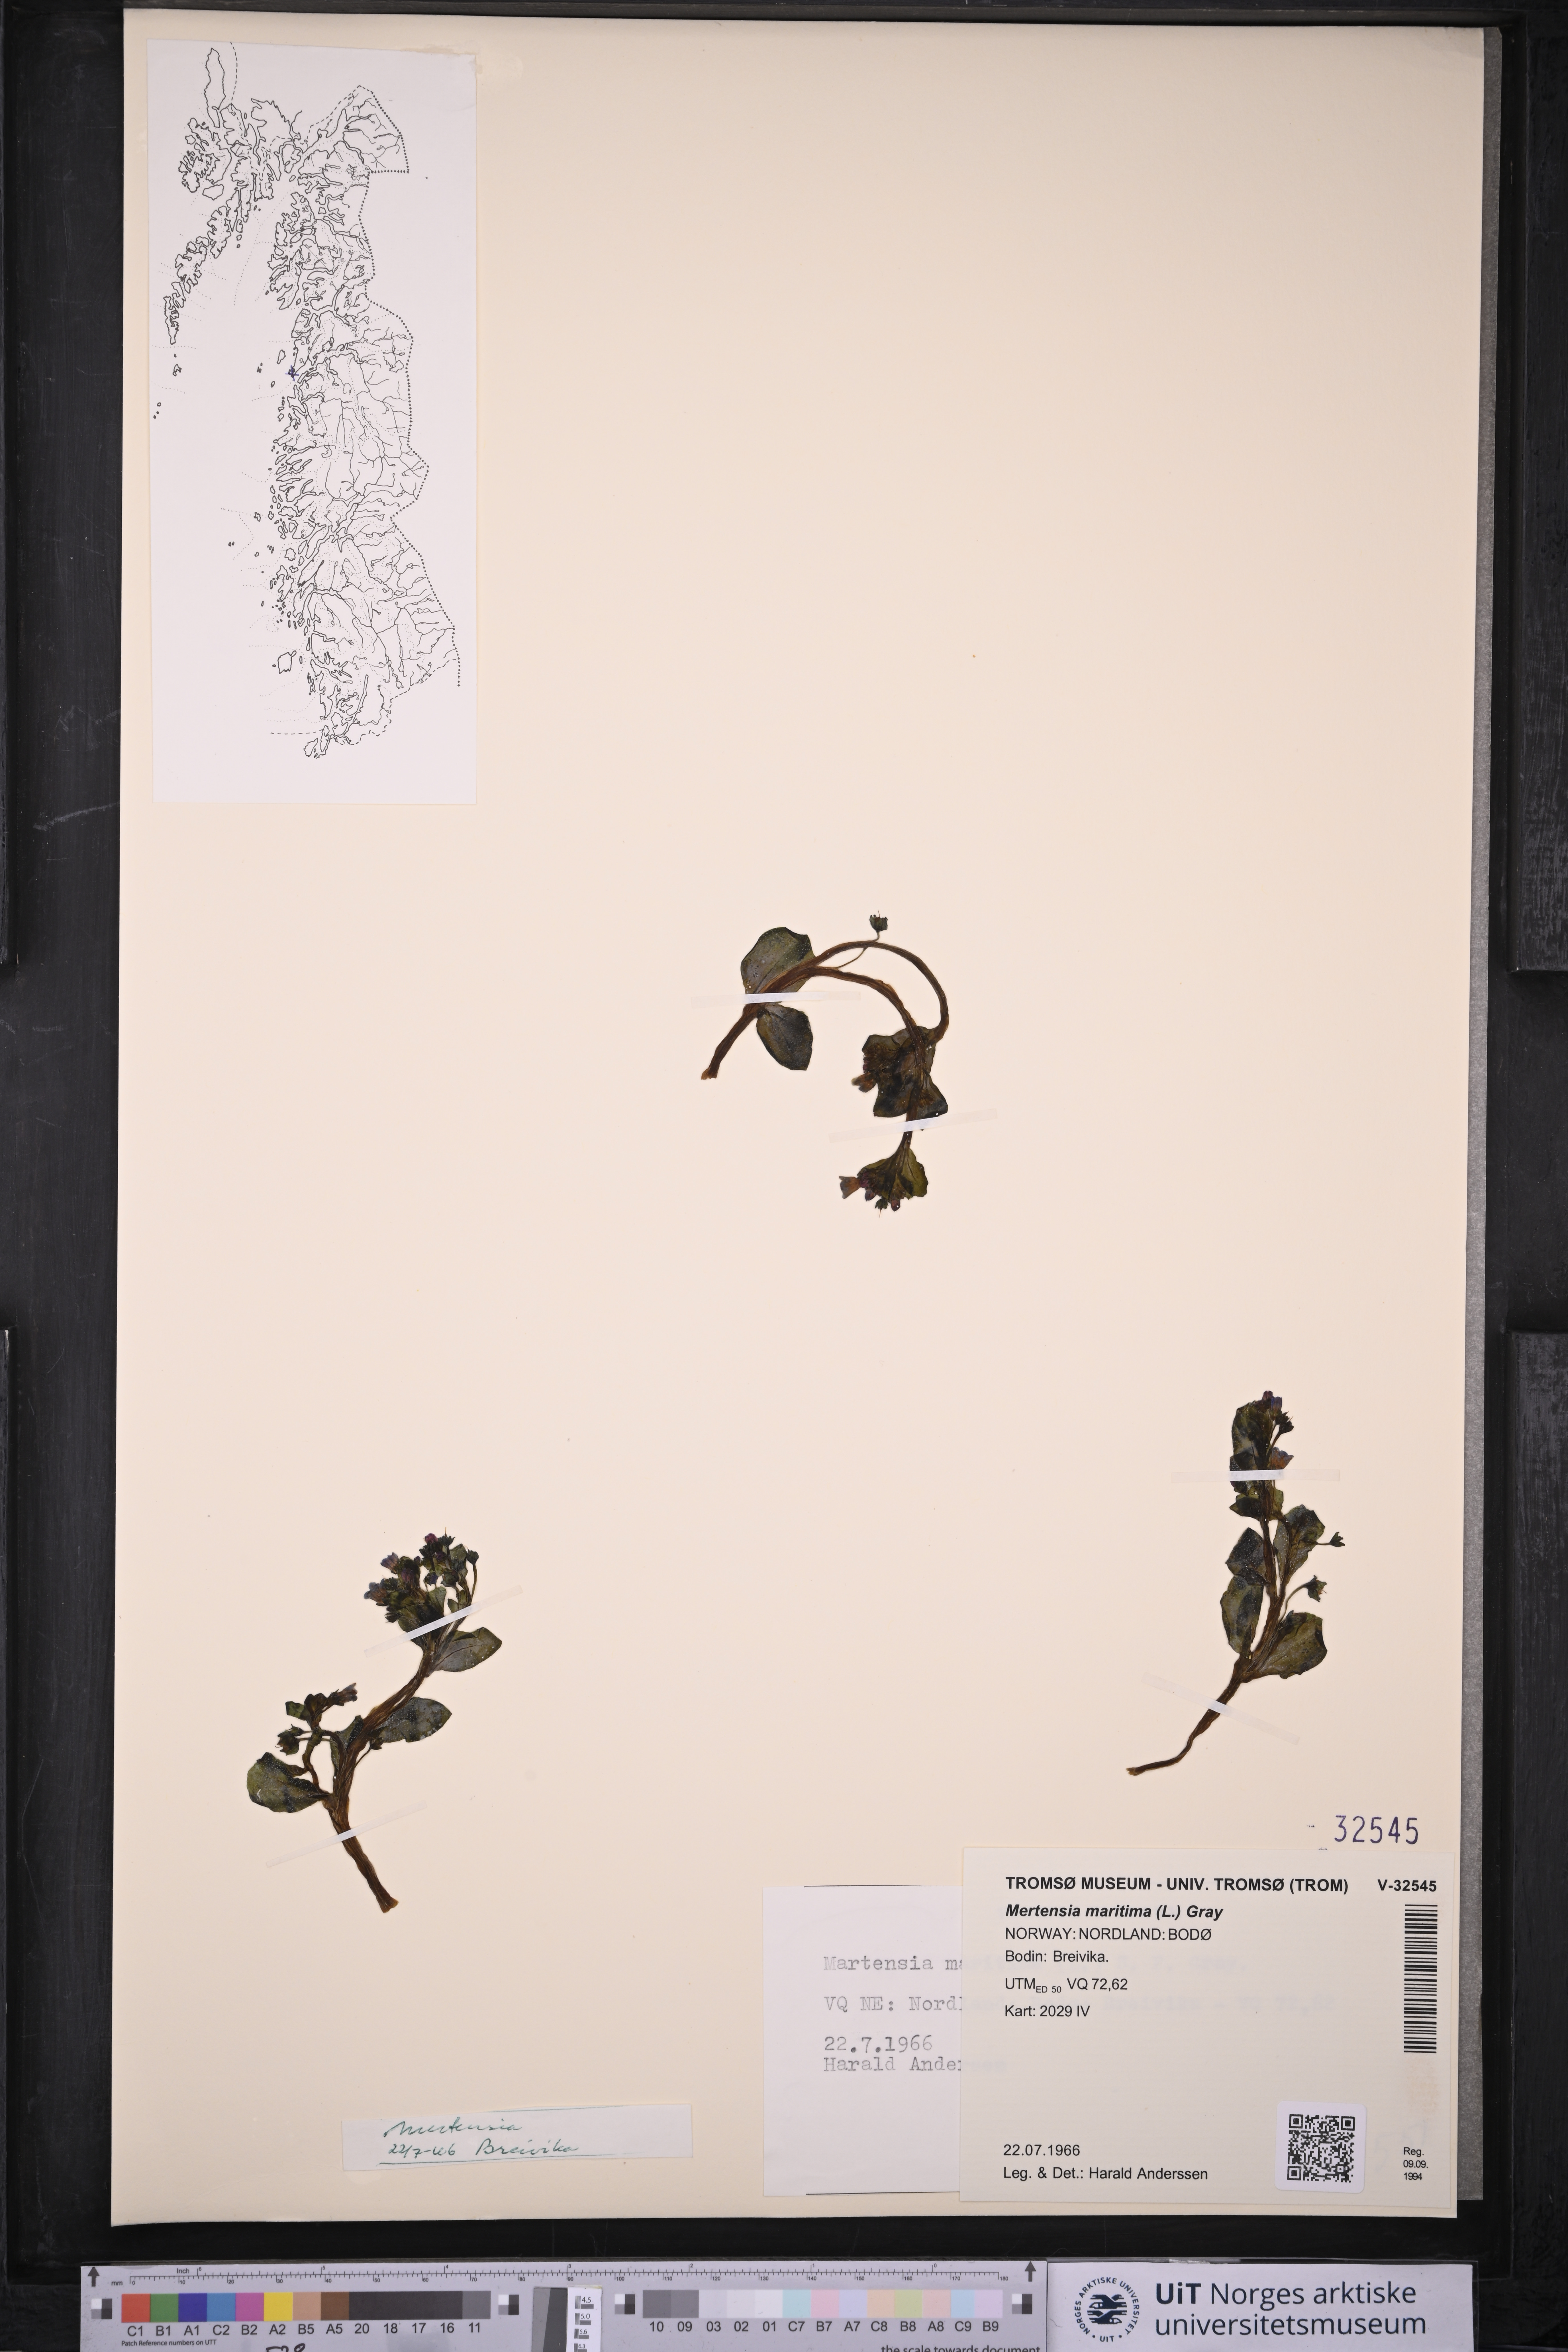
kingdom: Plantae
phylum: Tracheophyta
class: Magnoliopsida
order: Boraginales
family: Boraginaceae
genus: Mertensia
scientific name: Mertensia maritima
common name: Oysterplant
